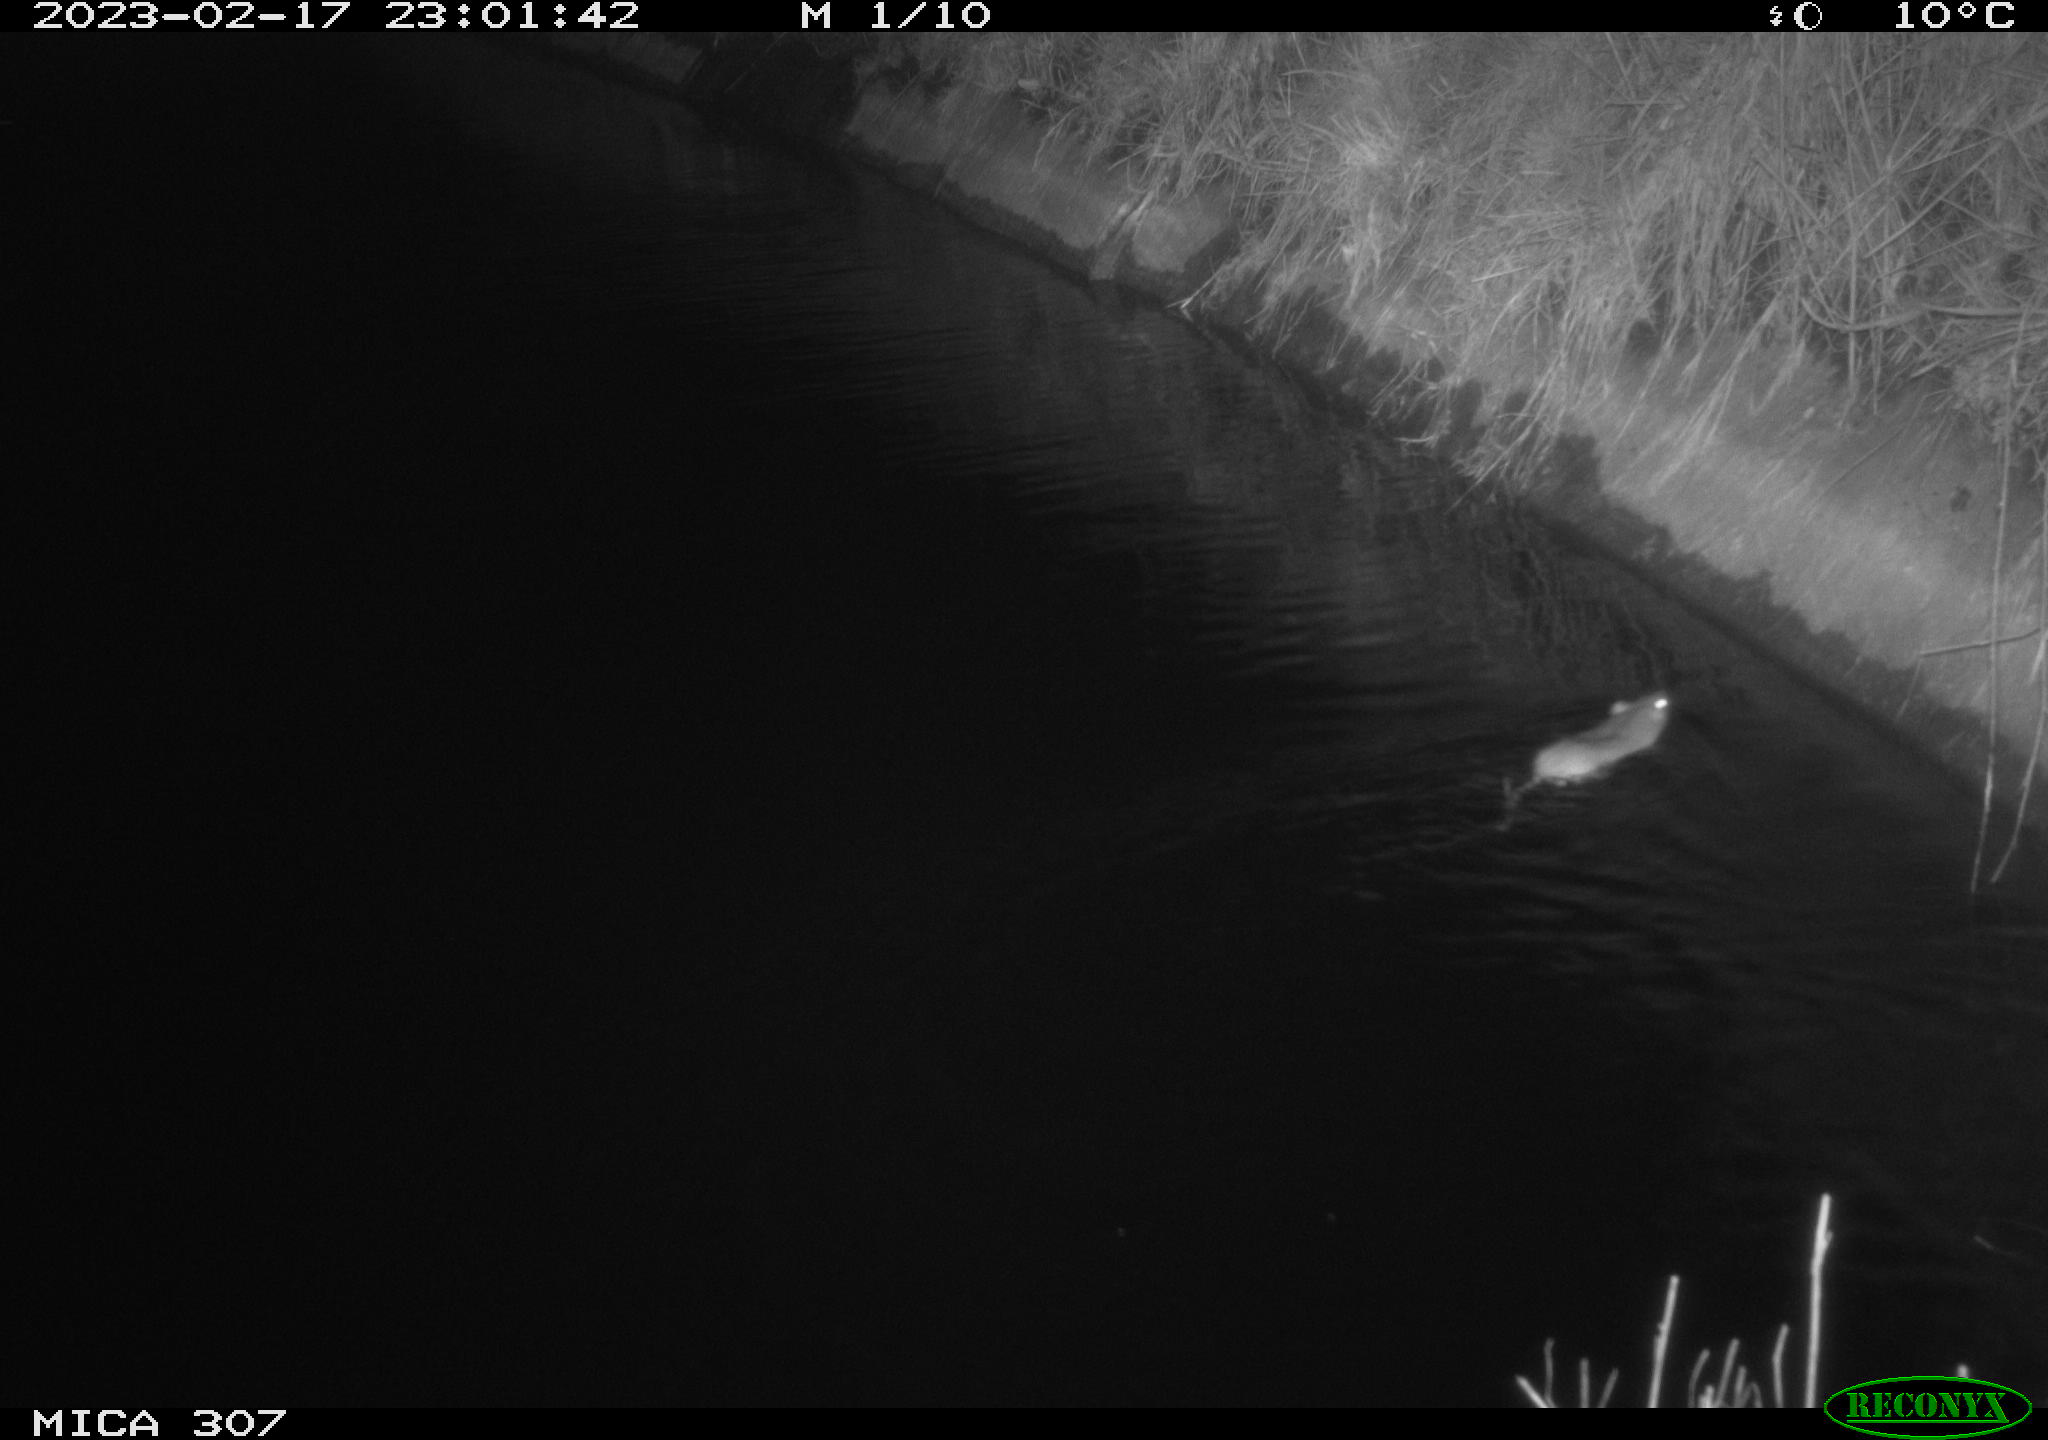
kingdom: Animalia
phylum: Chordata
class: Mammalia
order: Rodentia
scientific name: Rodentia
